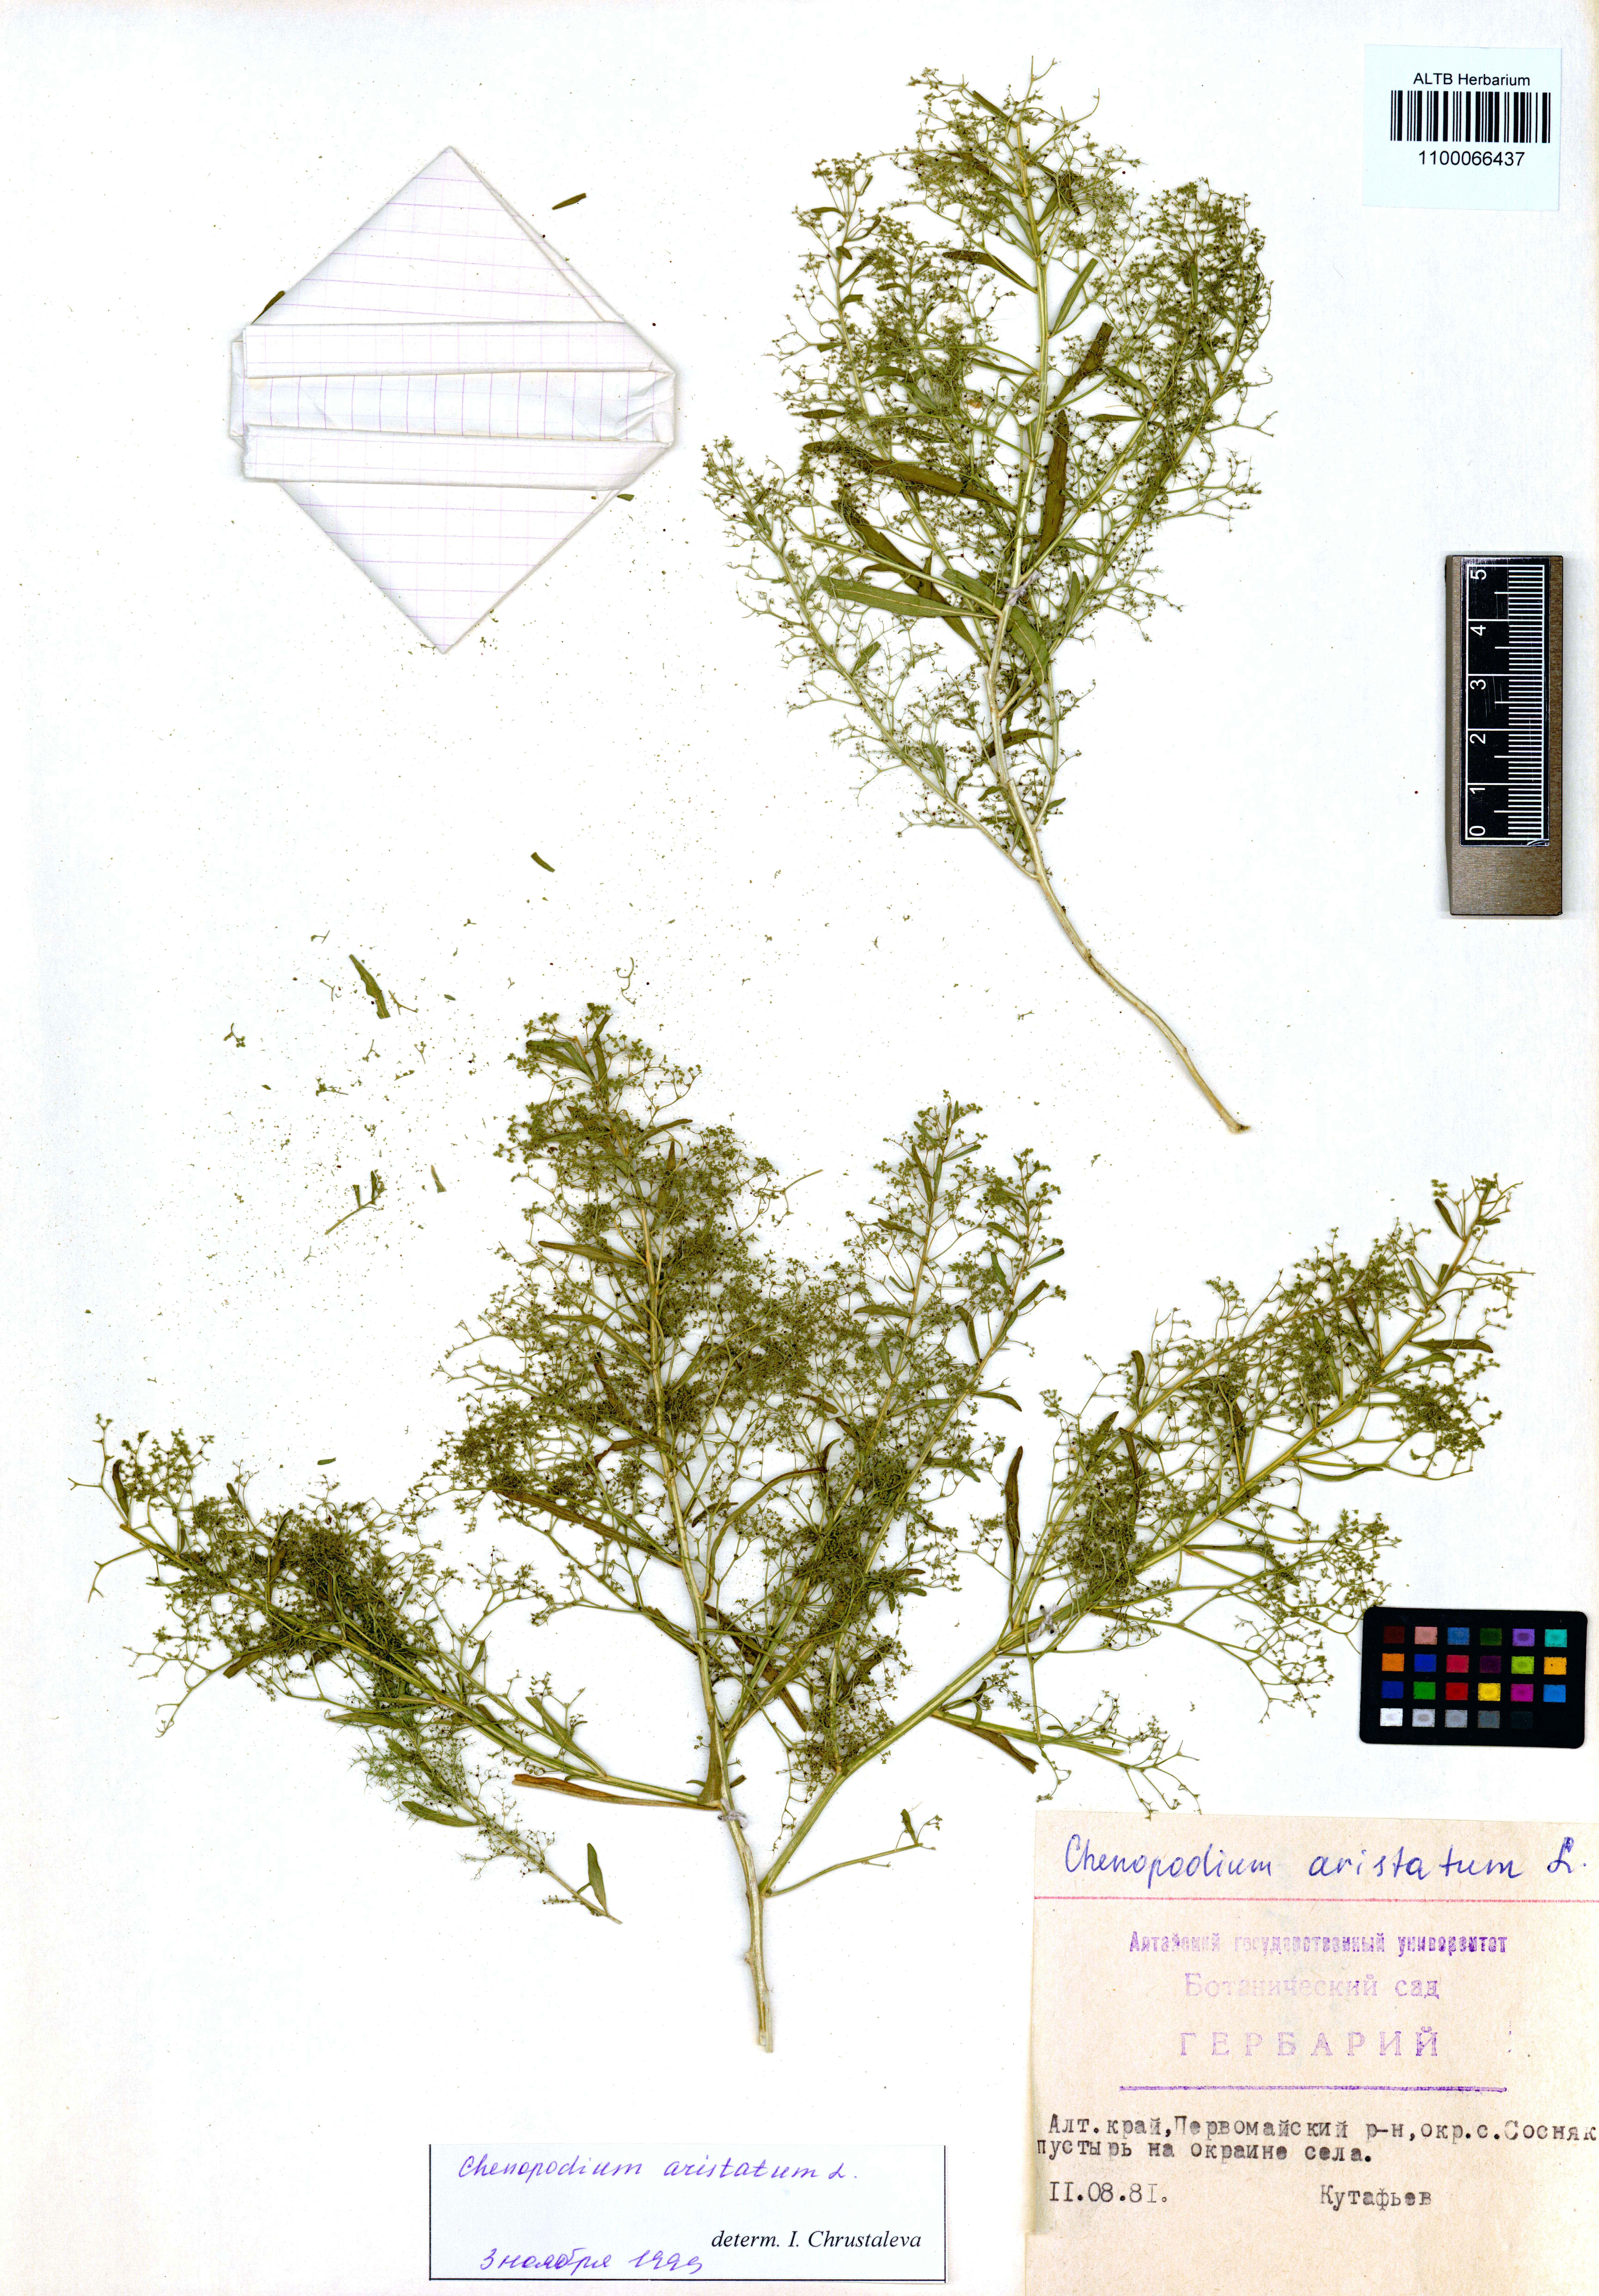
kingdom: Plantae
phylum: Tracheophyta
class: Magnoliopsida
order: Caryophyllales
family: Amaranthaceae
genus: Teloxys
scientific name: Teloxys aristata
